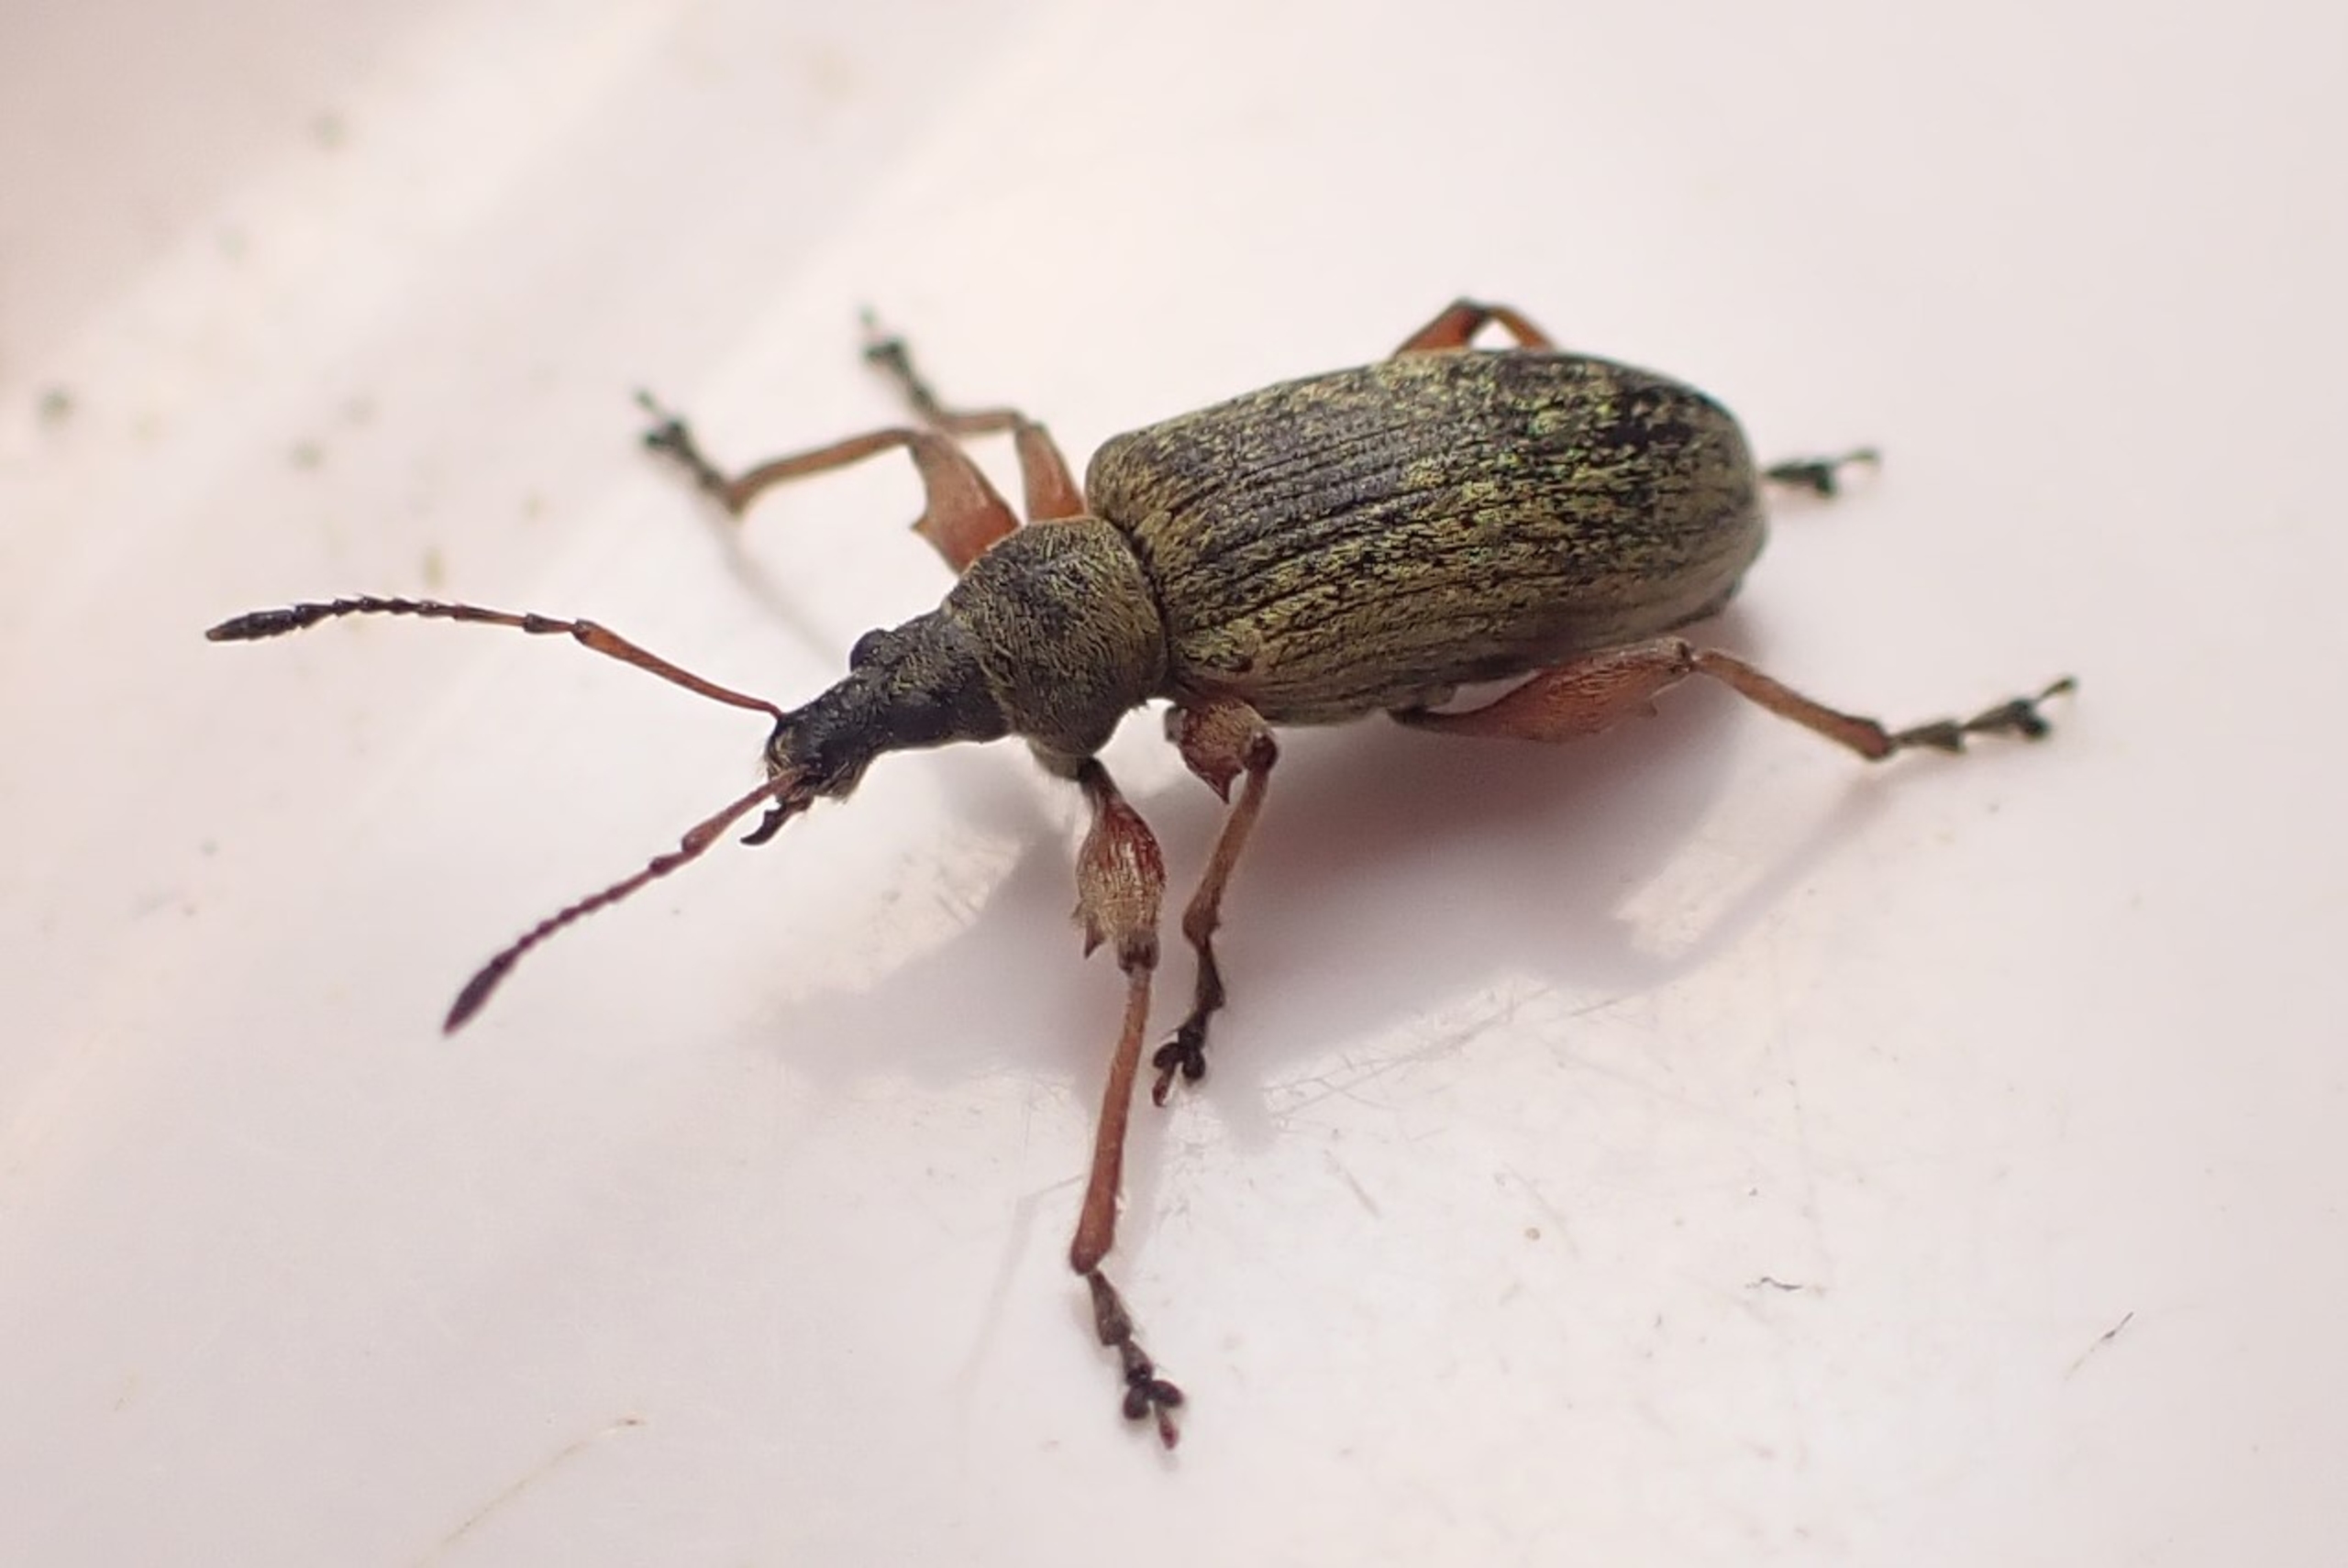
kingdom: Animalia
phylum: Arthropoda
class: Insecta
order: Coleoptera
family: Curculionidae
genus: Phyllobius
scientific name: Phyllobius glaucus
